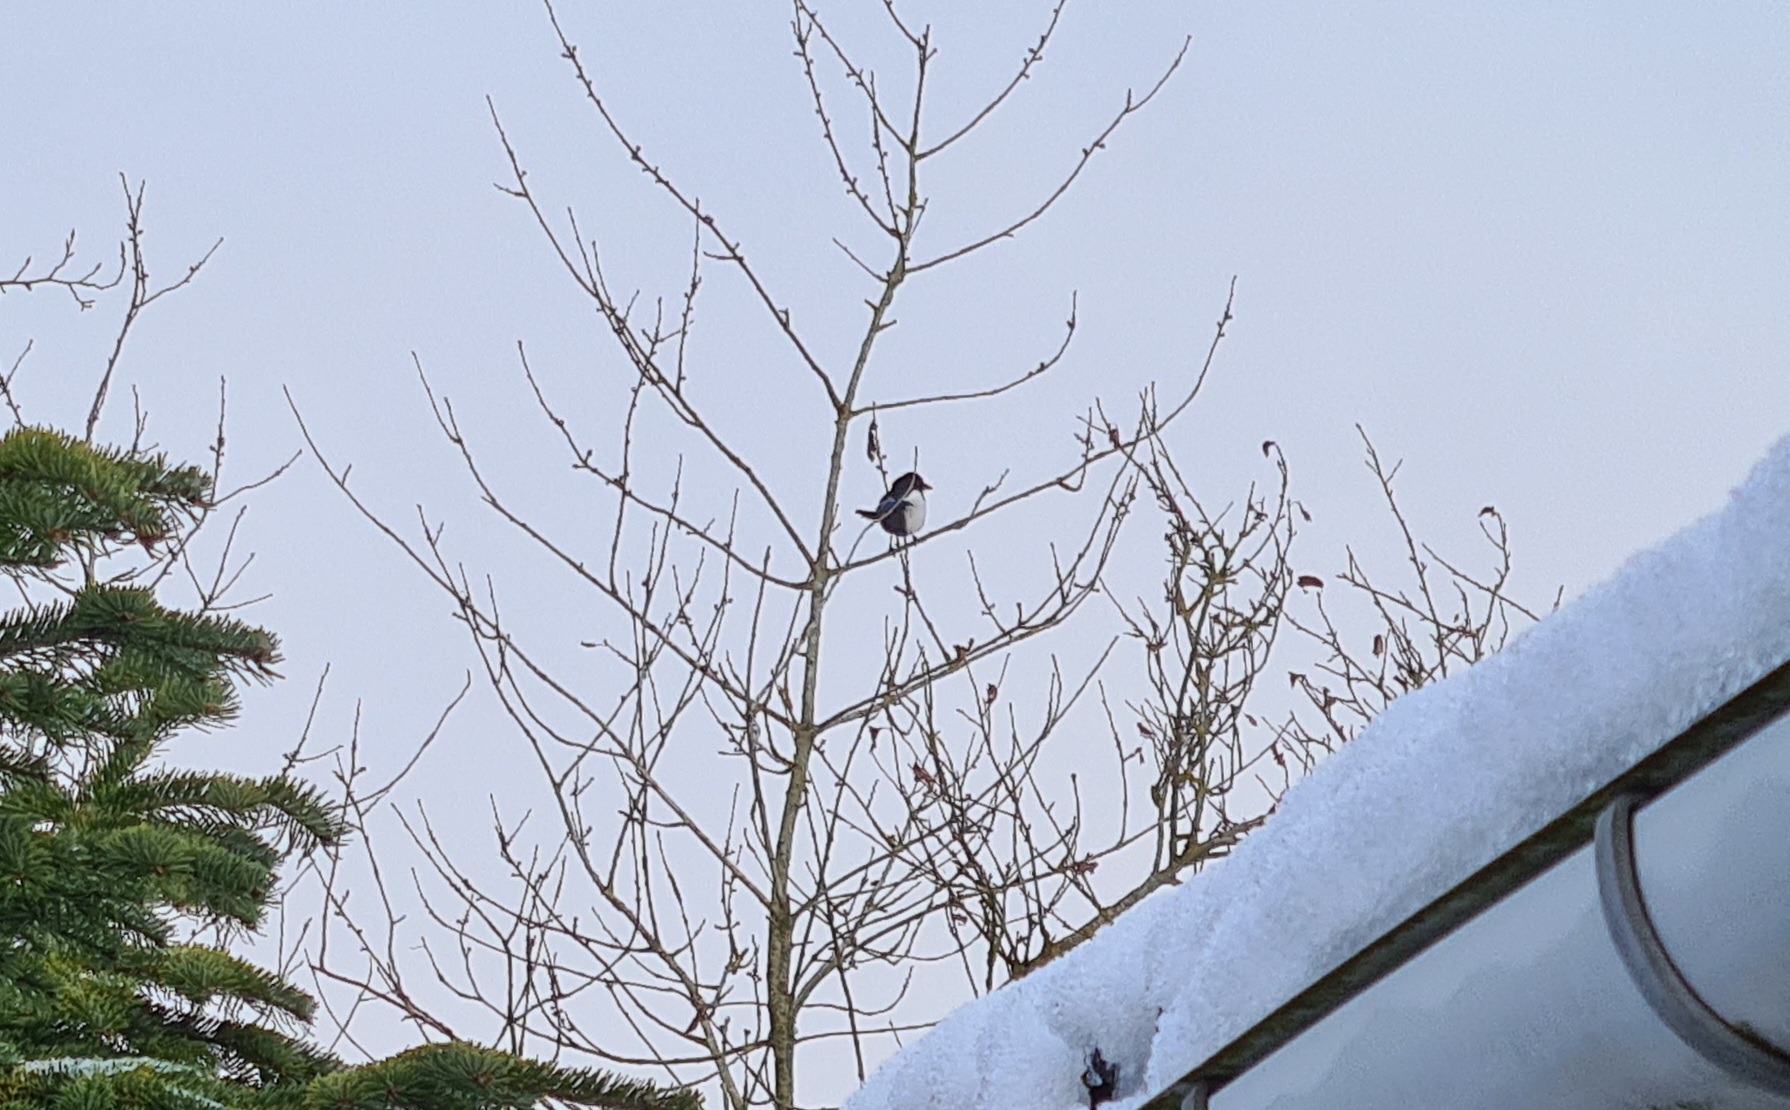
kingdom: Animalia
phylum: Chordata
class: Aves
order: Passeriformes
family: Corvidae
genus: Pica
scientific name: Pica pica
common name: Husskade
